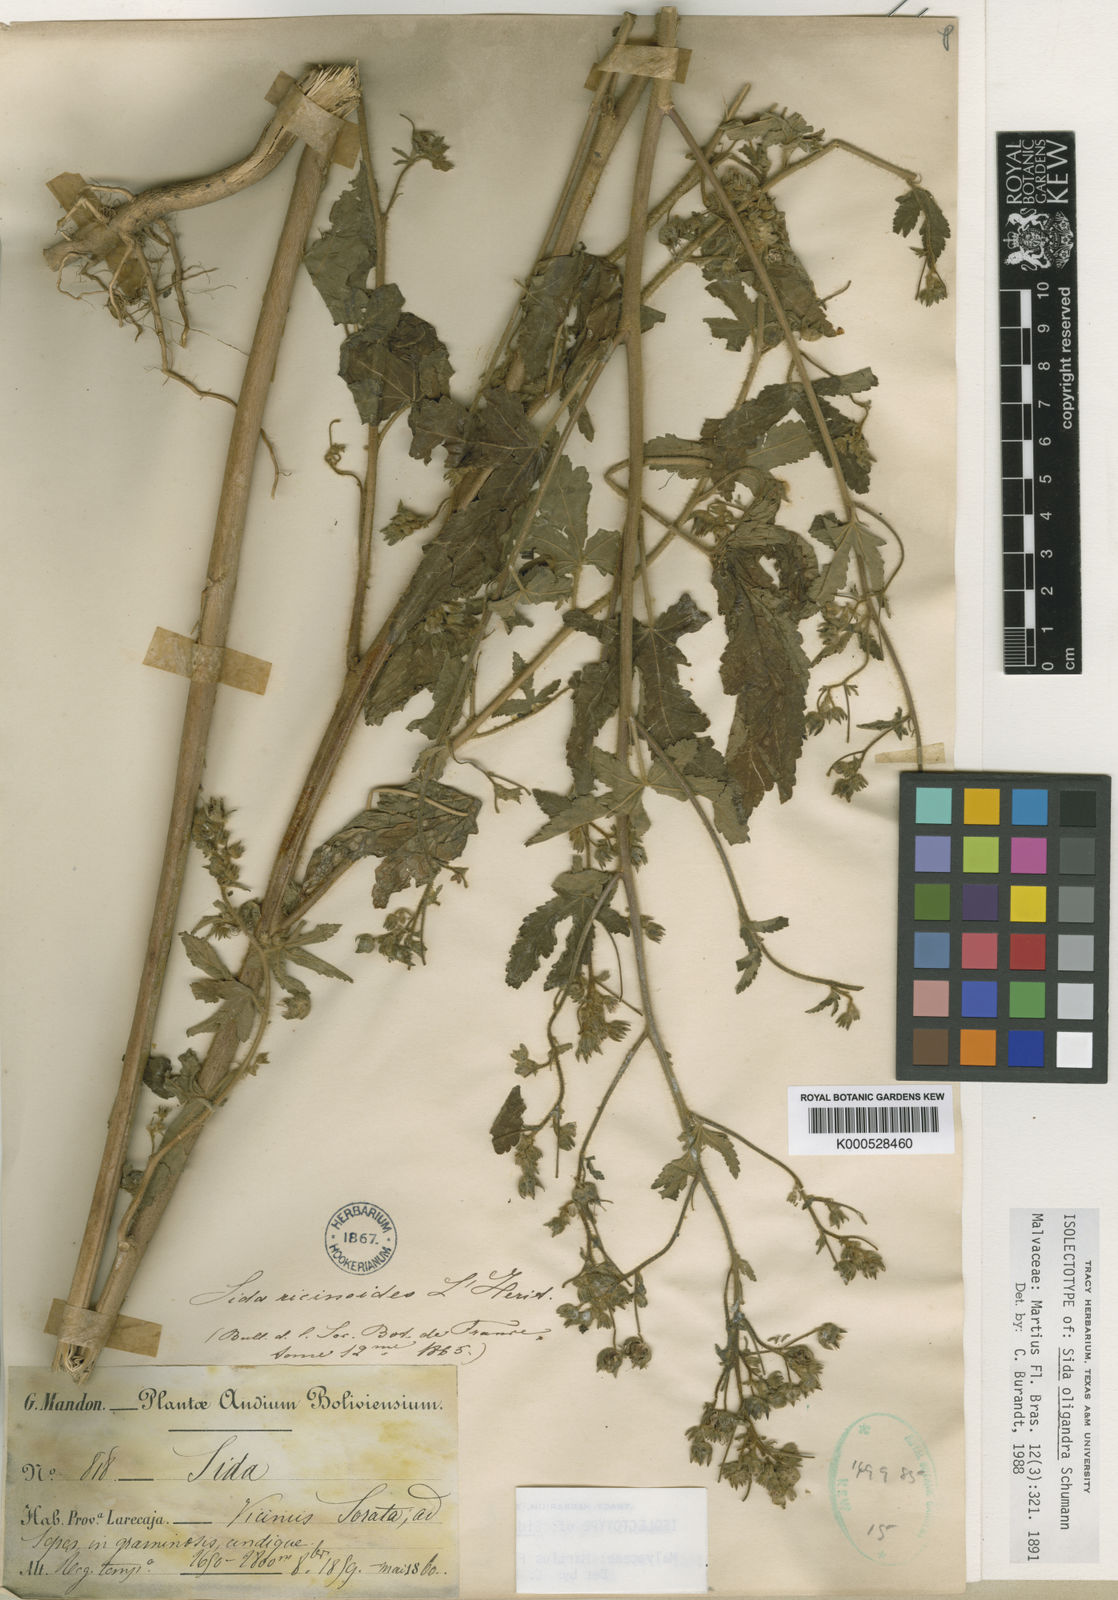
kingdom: Plantae
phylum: Tracheophyta
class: Magnoliopsida
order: Malvales
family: Malvaceae
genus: Sida
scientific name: Sida
